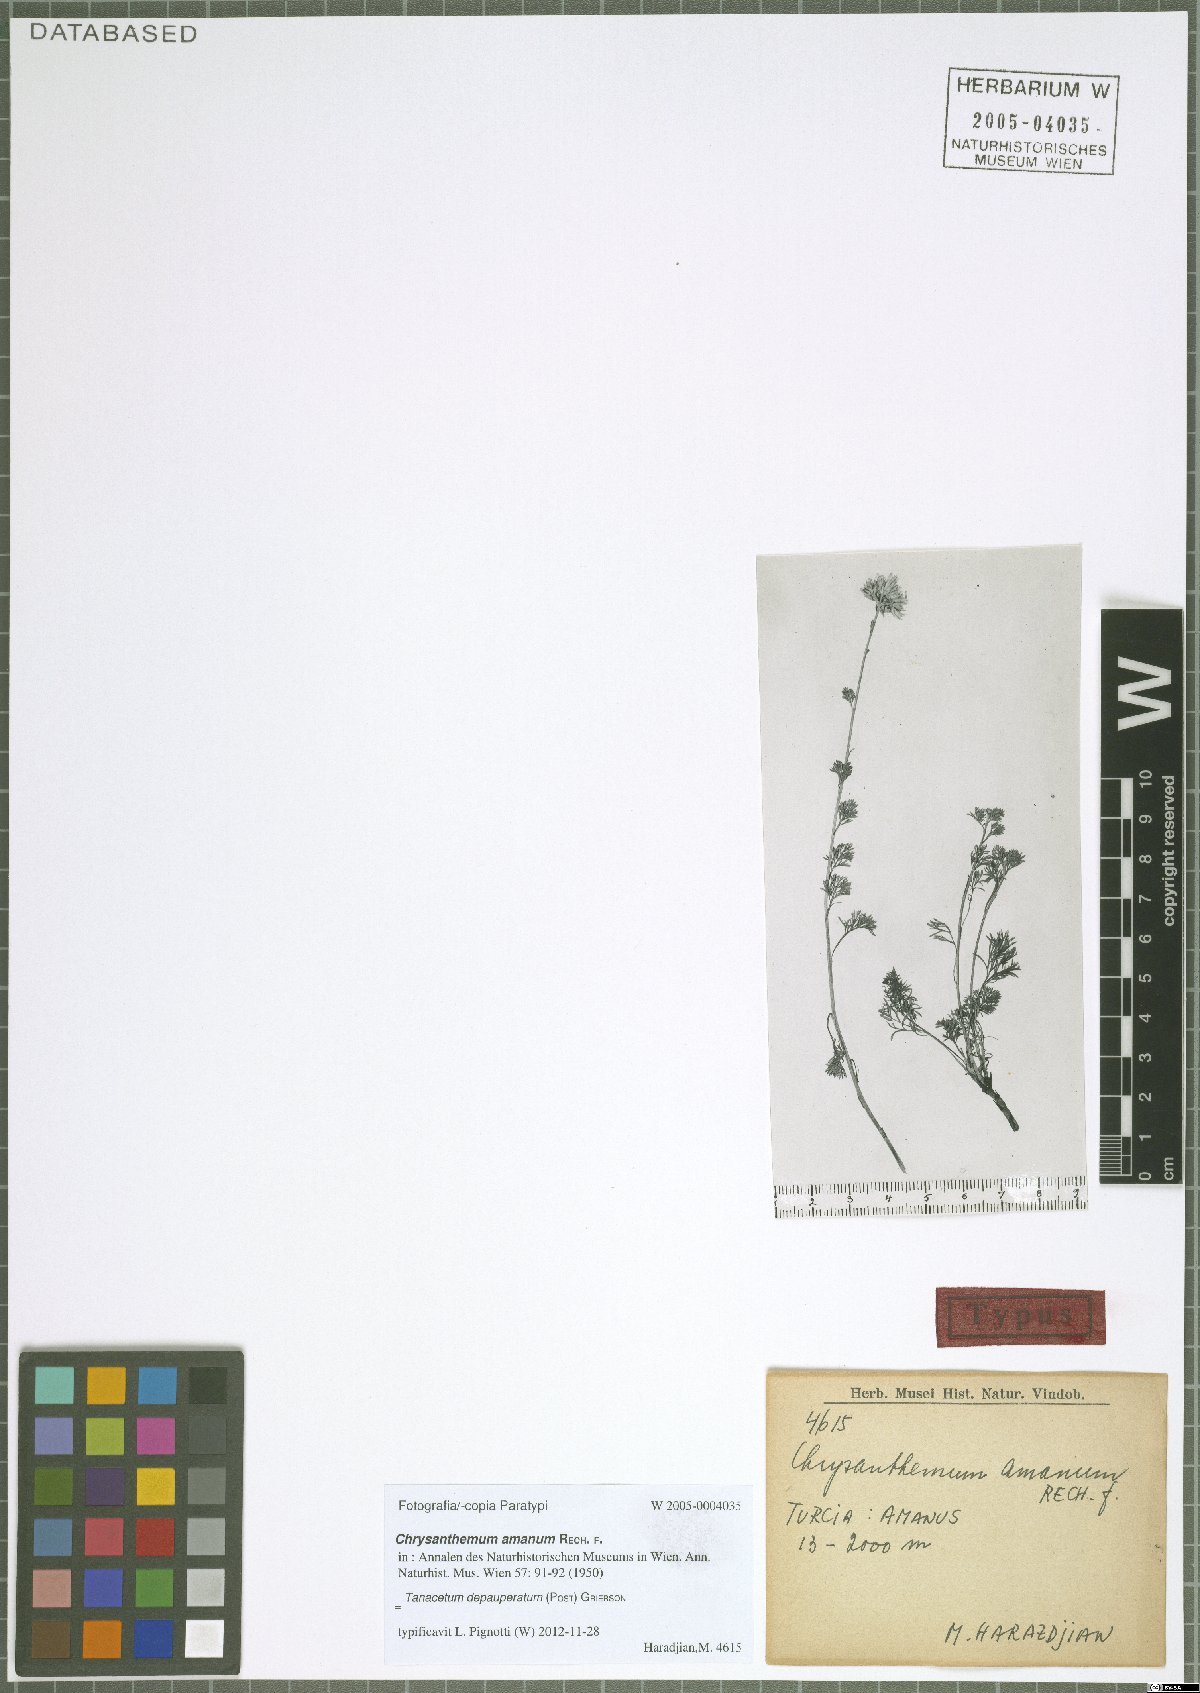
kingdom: Plantae
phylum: Tracheophyta
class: Magnoliopsida
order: Asterales
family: Asteraceae
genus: Tanacetum
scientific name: Tanacetum depauperatum
